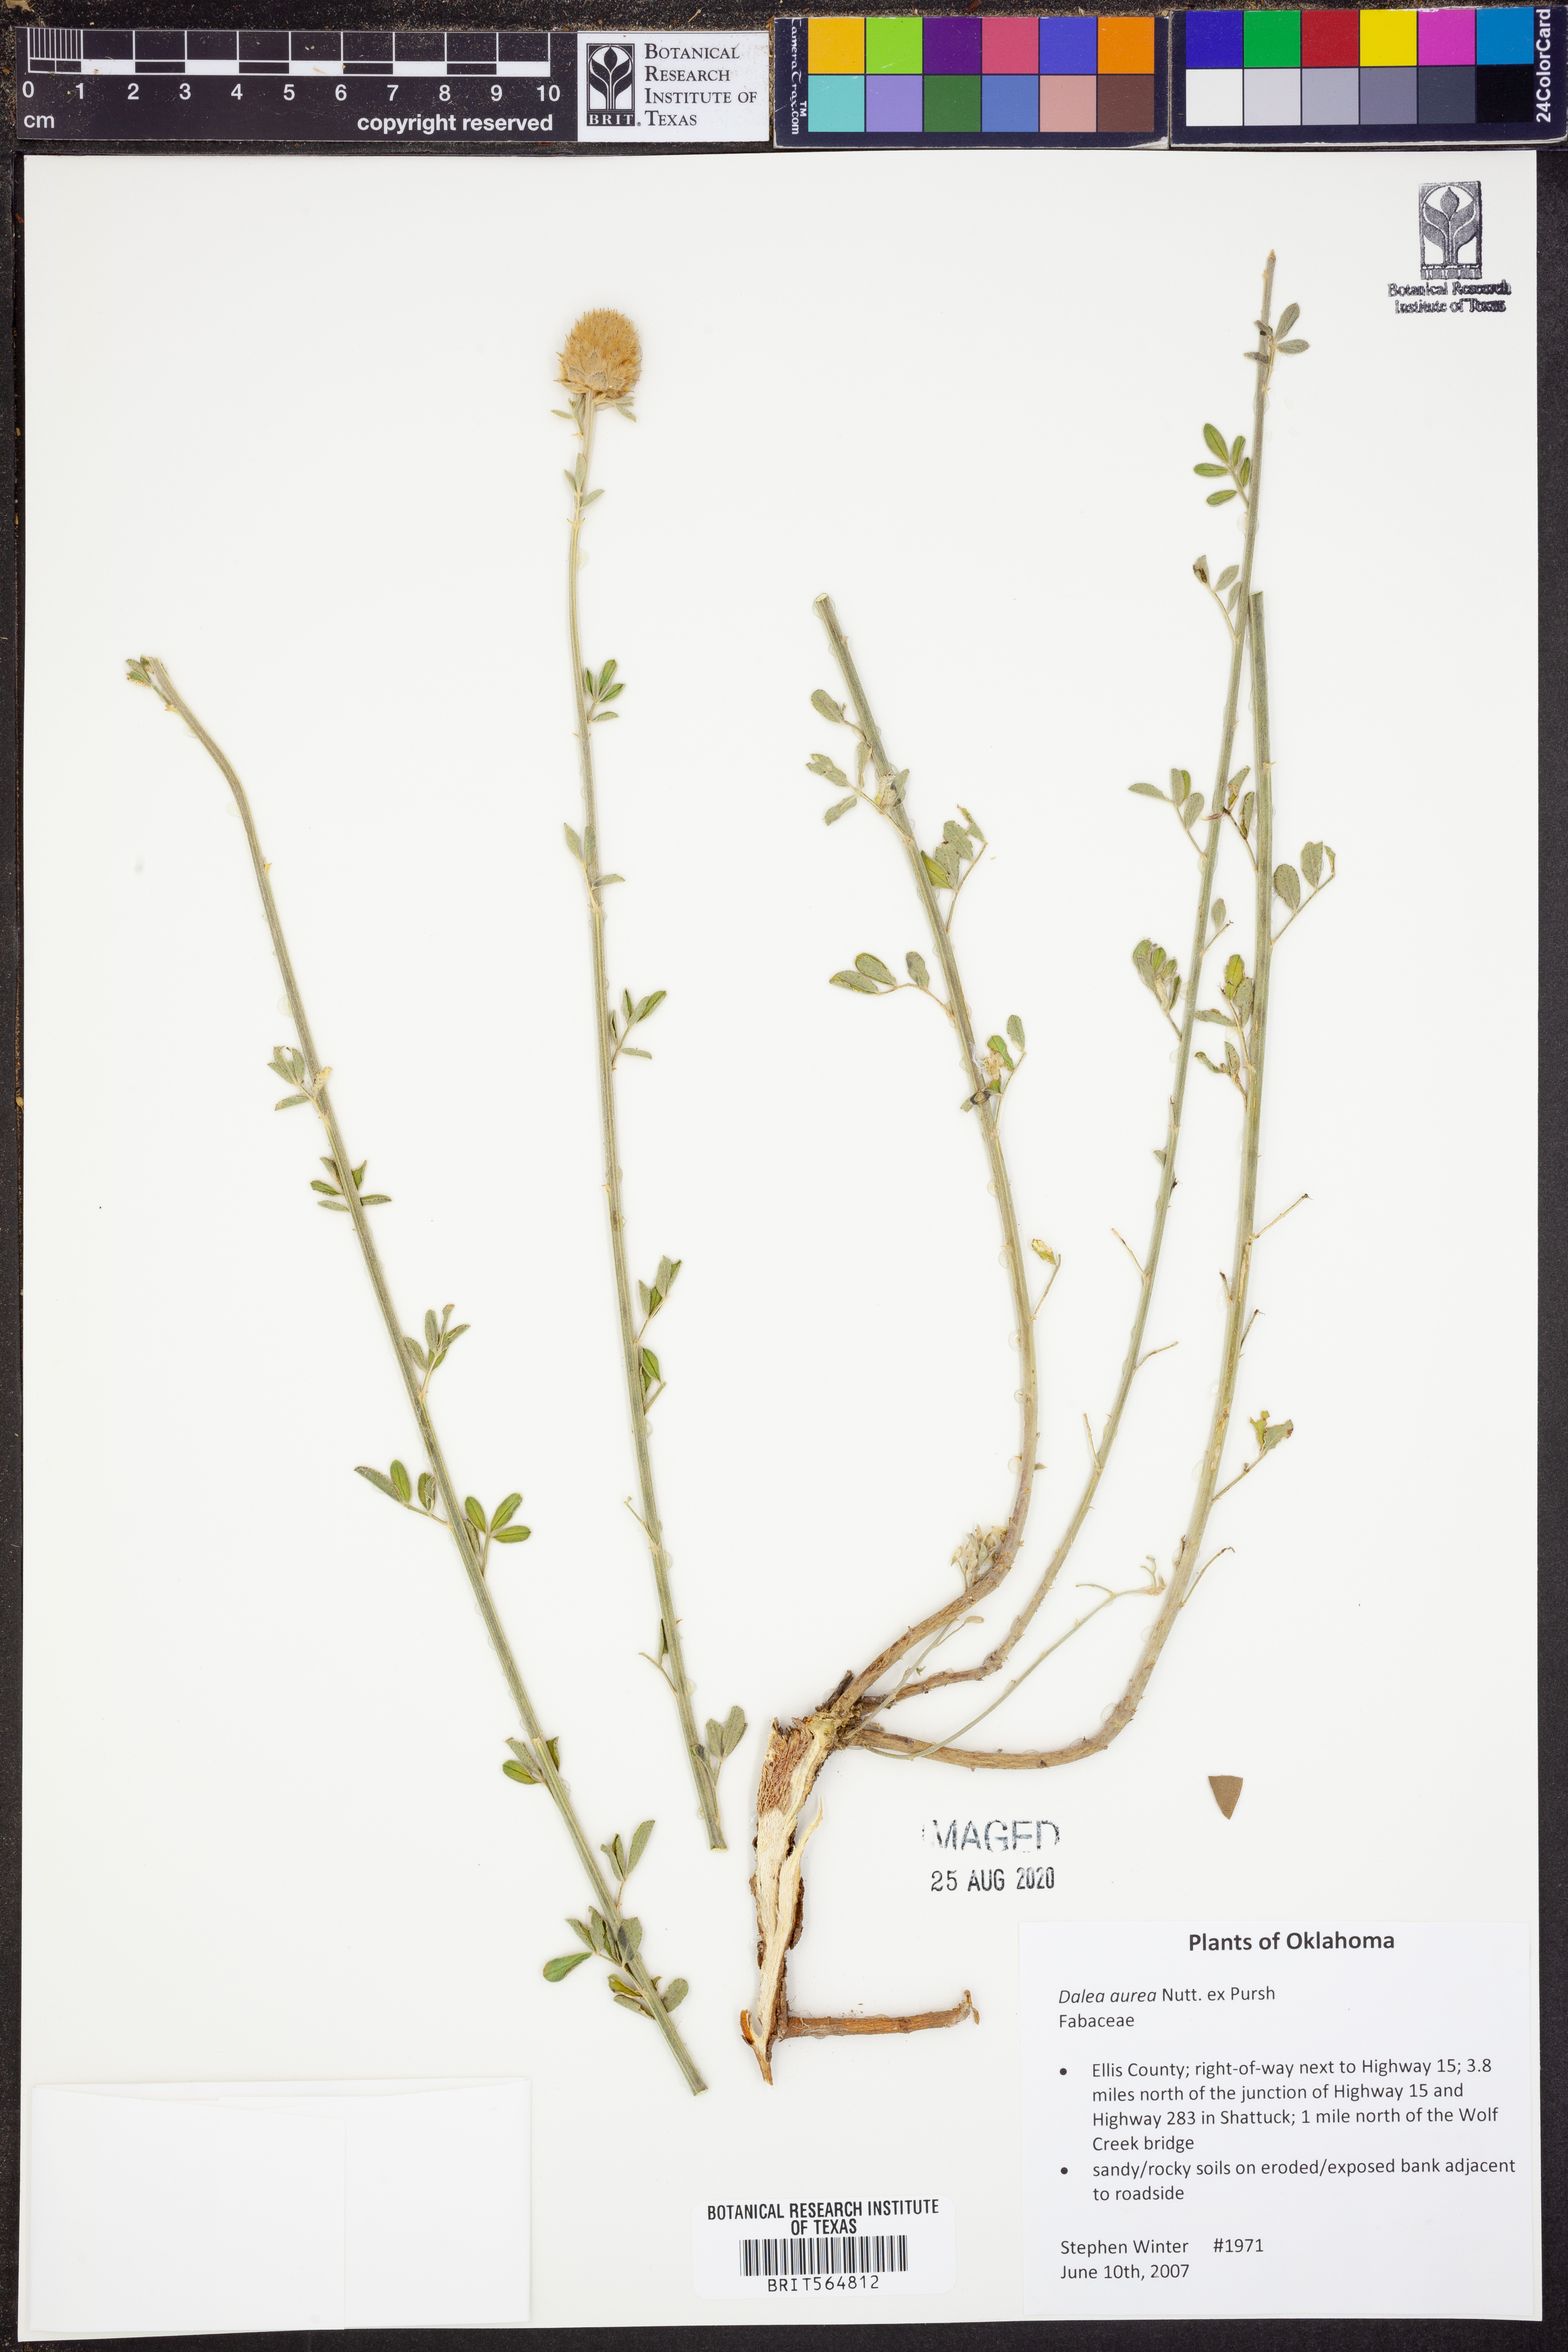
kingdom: Plantae
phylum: Tracheophyta
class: Magnoliopsida
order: Fabales
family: Fabaceae
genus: Dalea
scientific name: Dalea aurea
